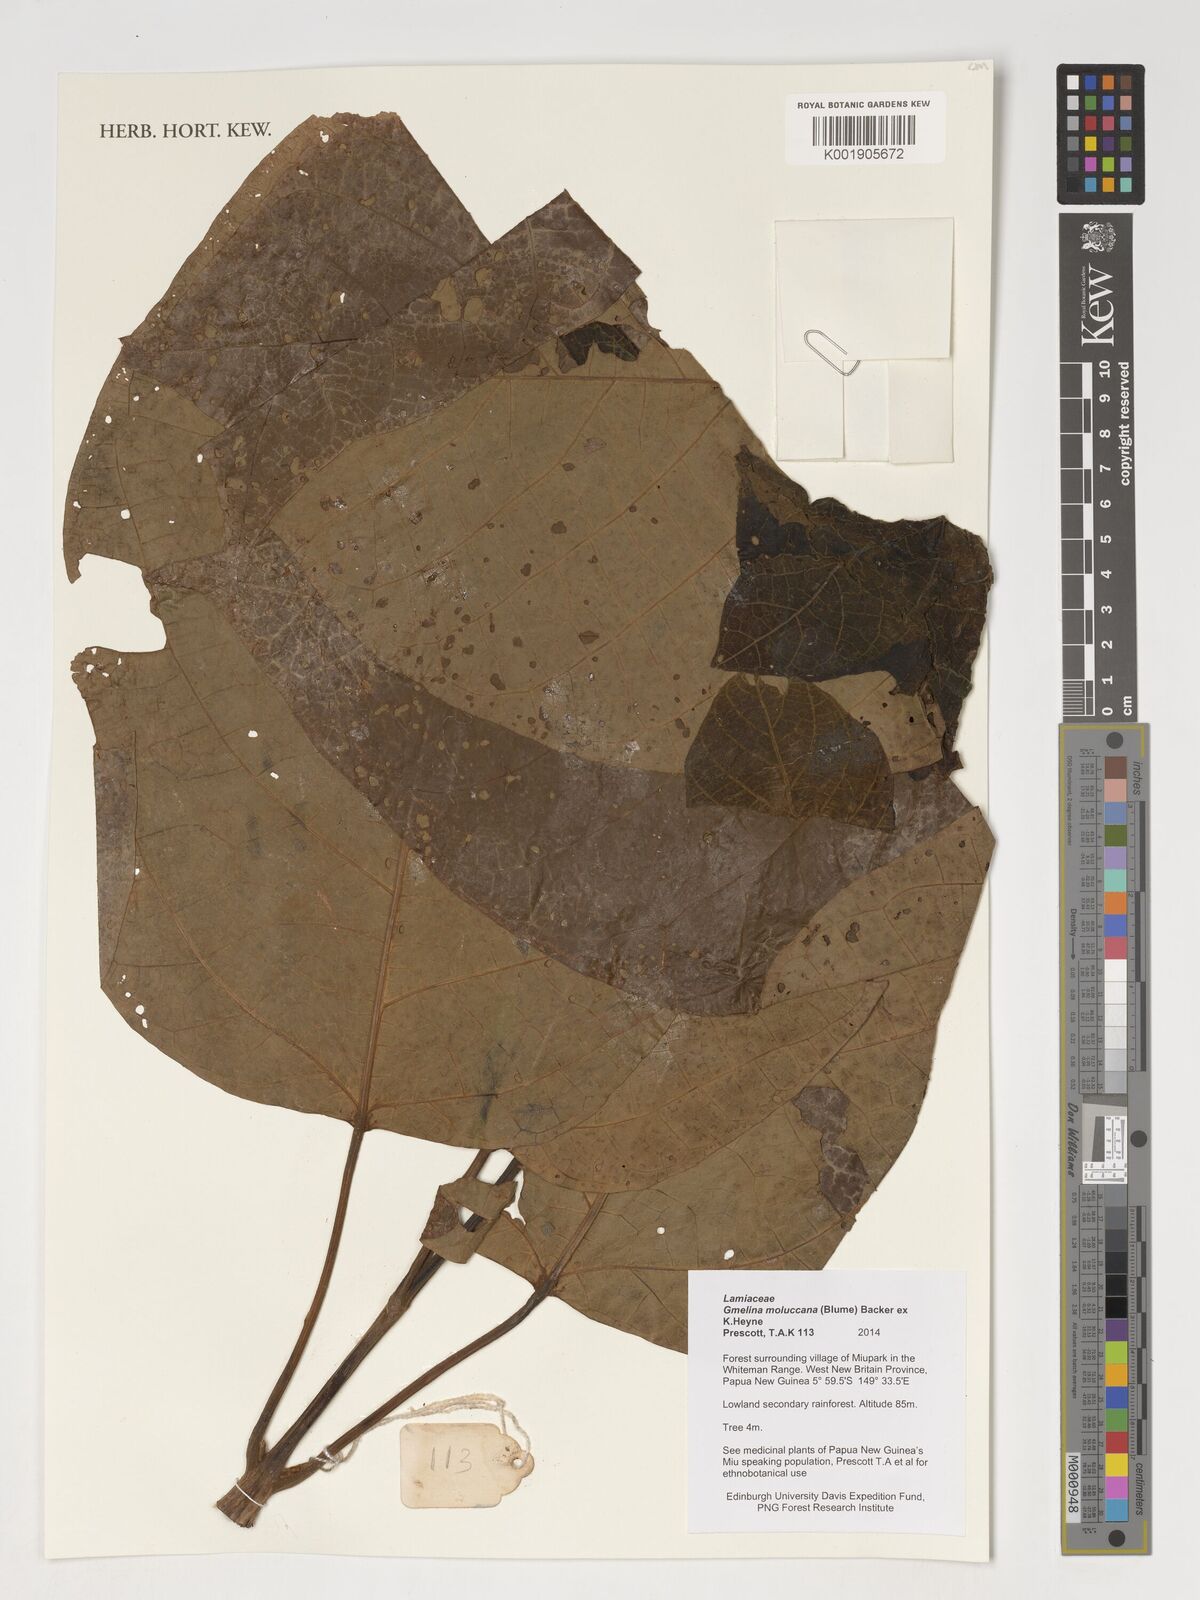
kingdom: Plantae
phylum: Tracheophyta
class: Magnoliopsida
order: Lamiales
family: Lamiaceae
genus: Gmelina
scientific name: Gmelina moluccana
